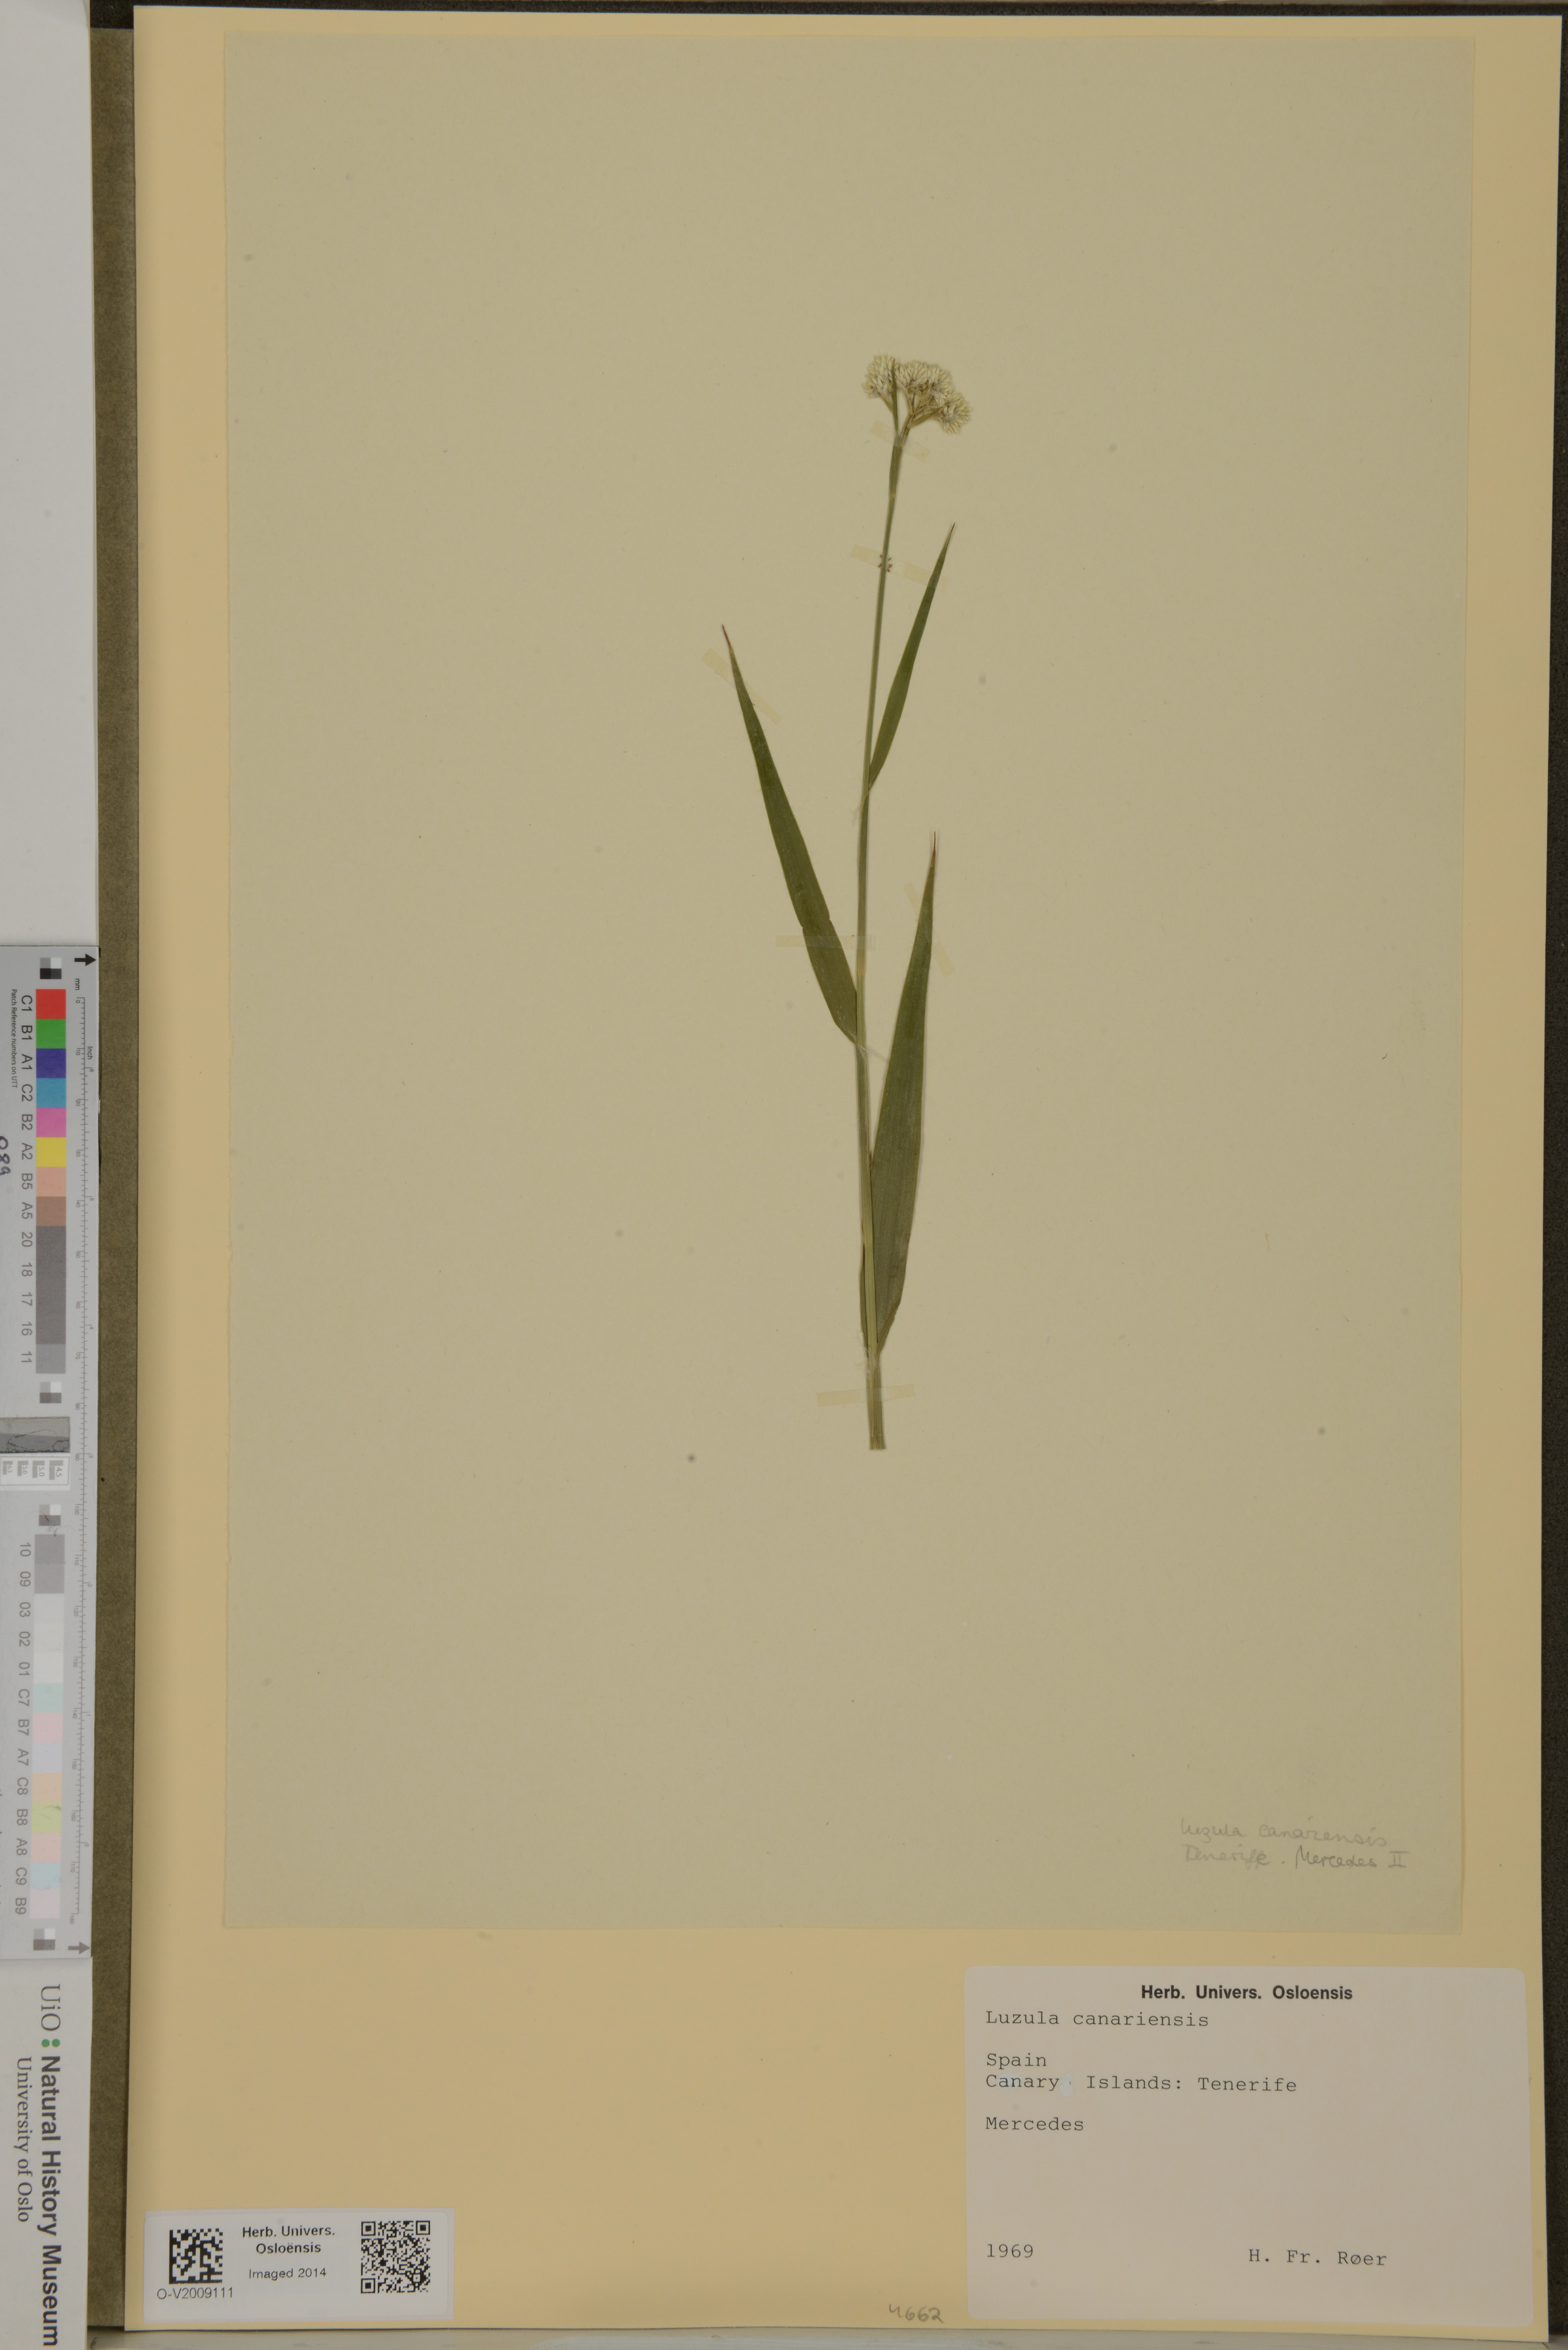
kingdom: Plantae
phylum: Tracheophyta
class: Liliopsida
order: Poales
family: Juncaceae
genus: Luzula
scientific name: Luzula canariensis
